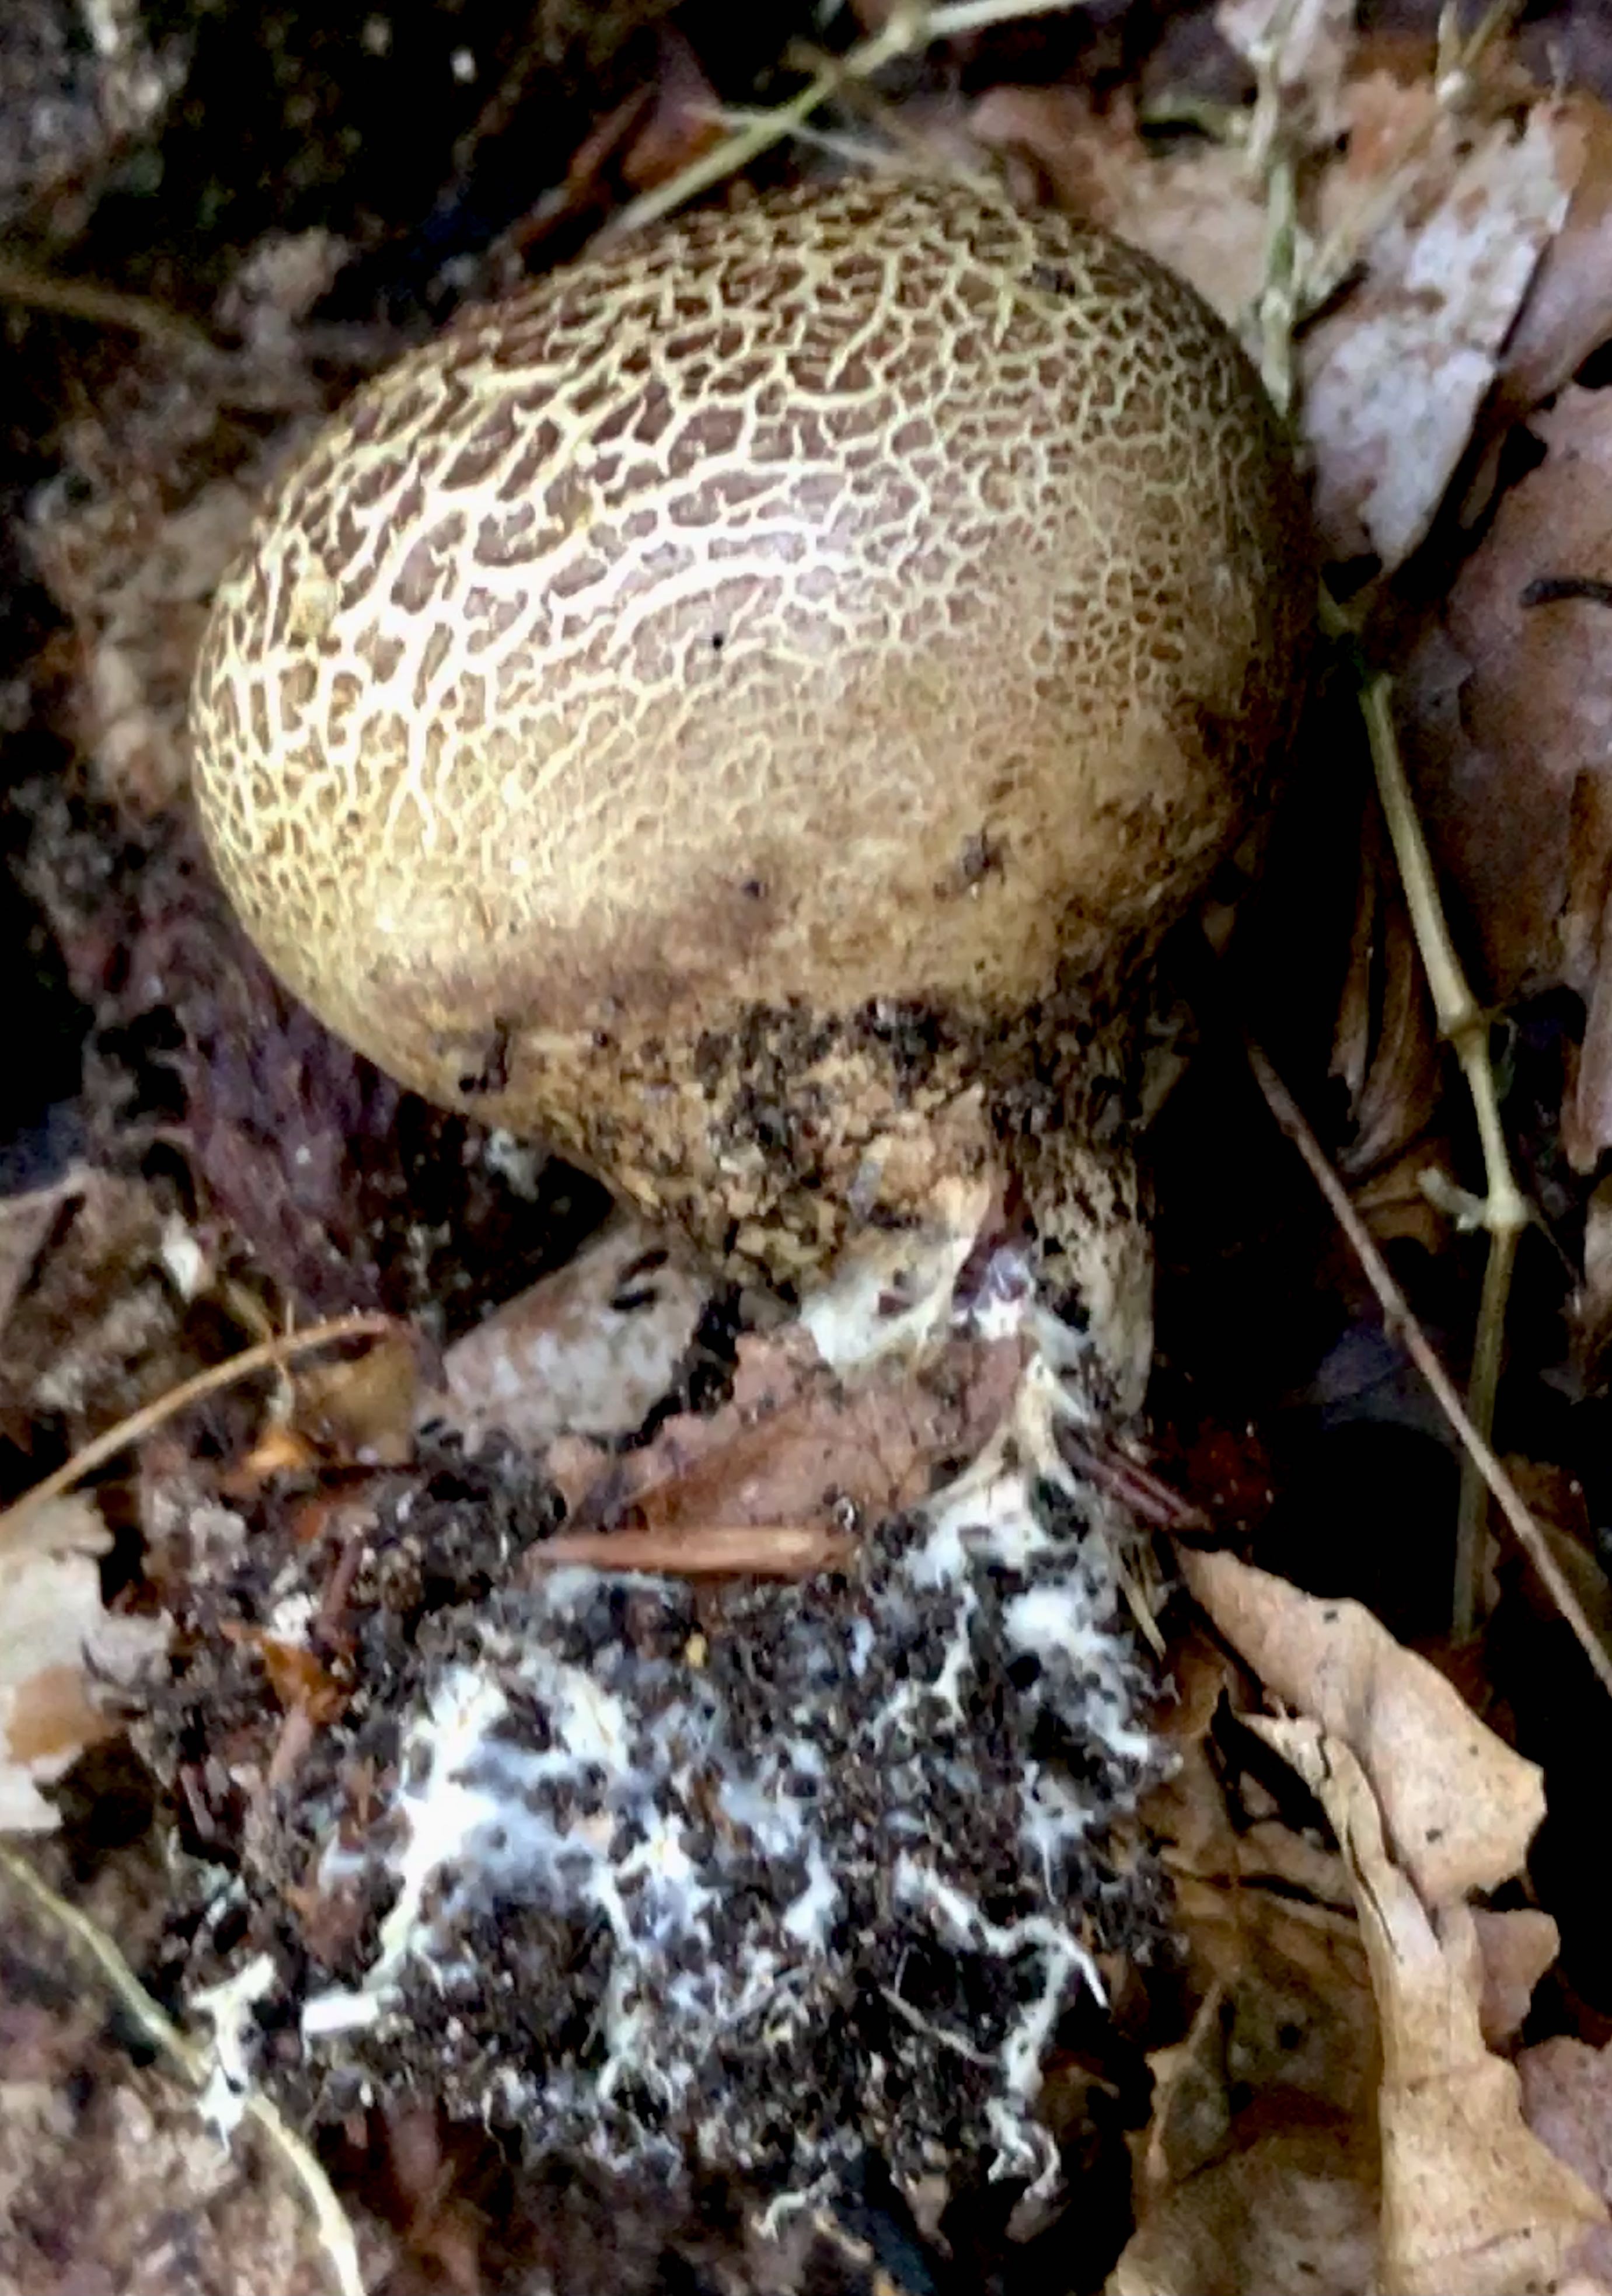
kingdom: Fungi
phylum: Basidiomycota
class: Agaricomycetes
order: Boletales
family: Sclerodermataceae
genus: Scleroderma
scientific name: Scleroderma verrucosum
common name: stilket bruskbold
